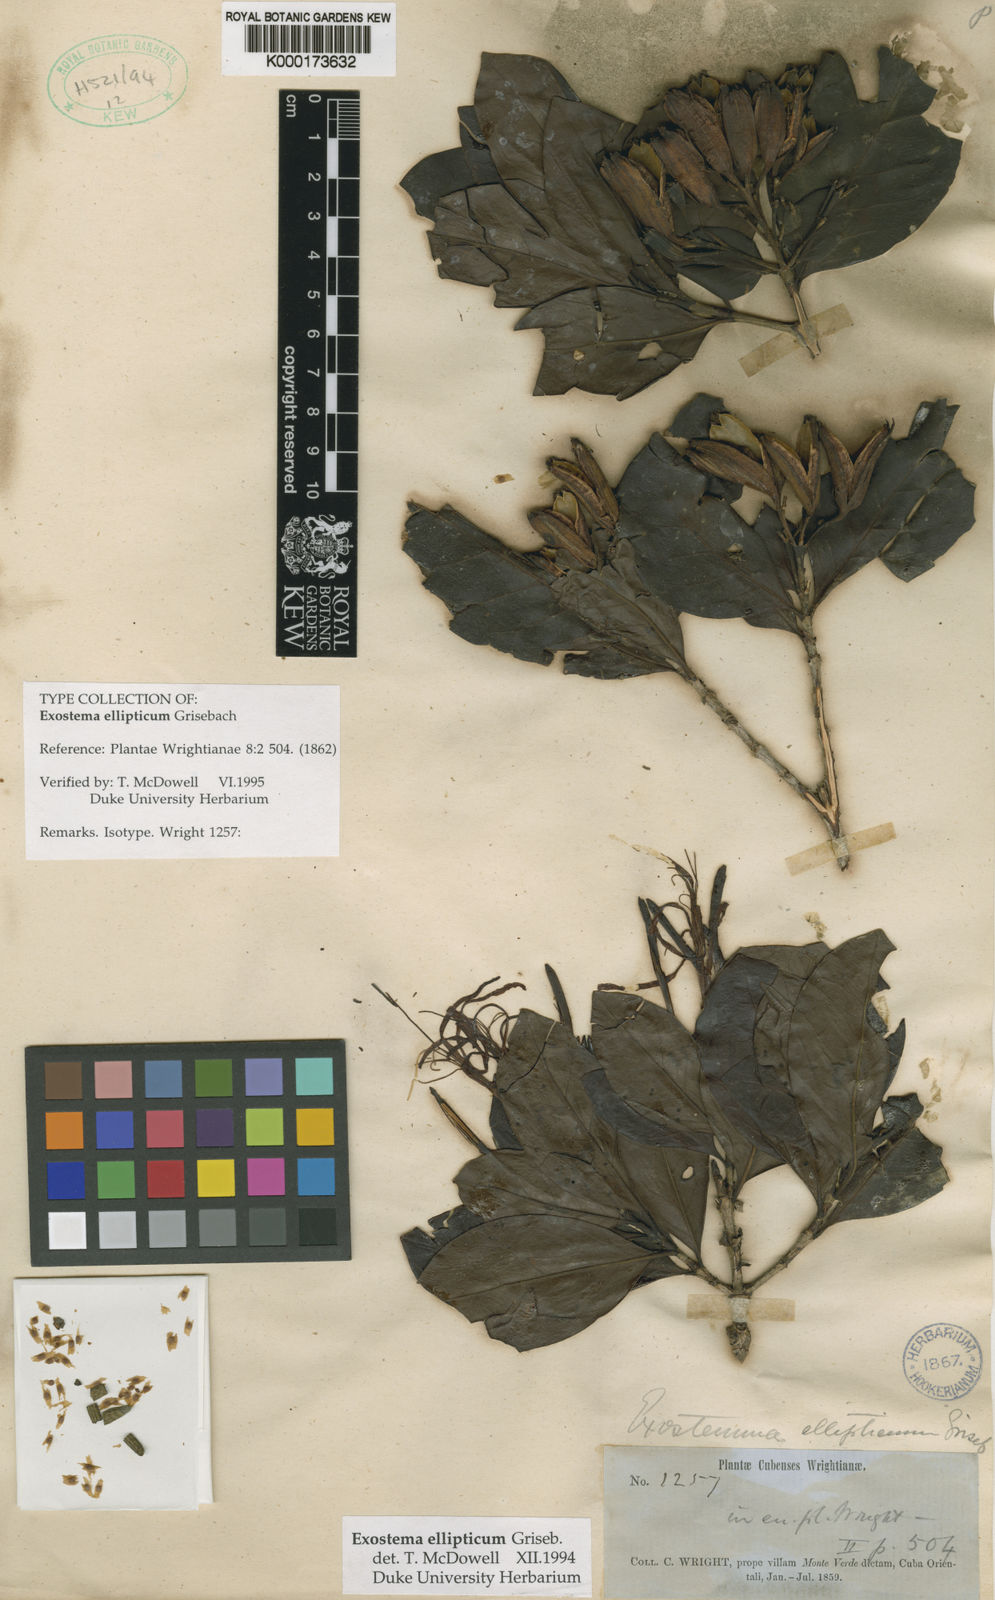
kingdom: Plantae
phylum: Tracheophyta
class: Magnoliopsida
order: Gentianales
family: Rubiaceae
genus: Solenandra
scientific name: Solenandra elliptica
